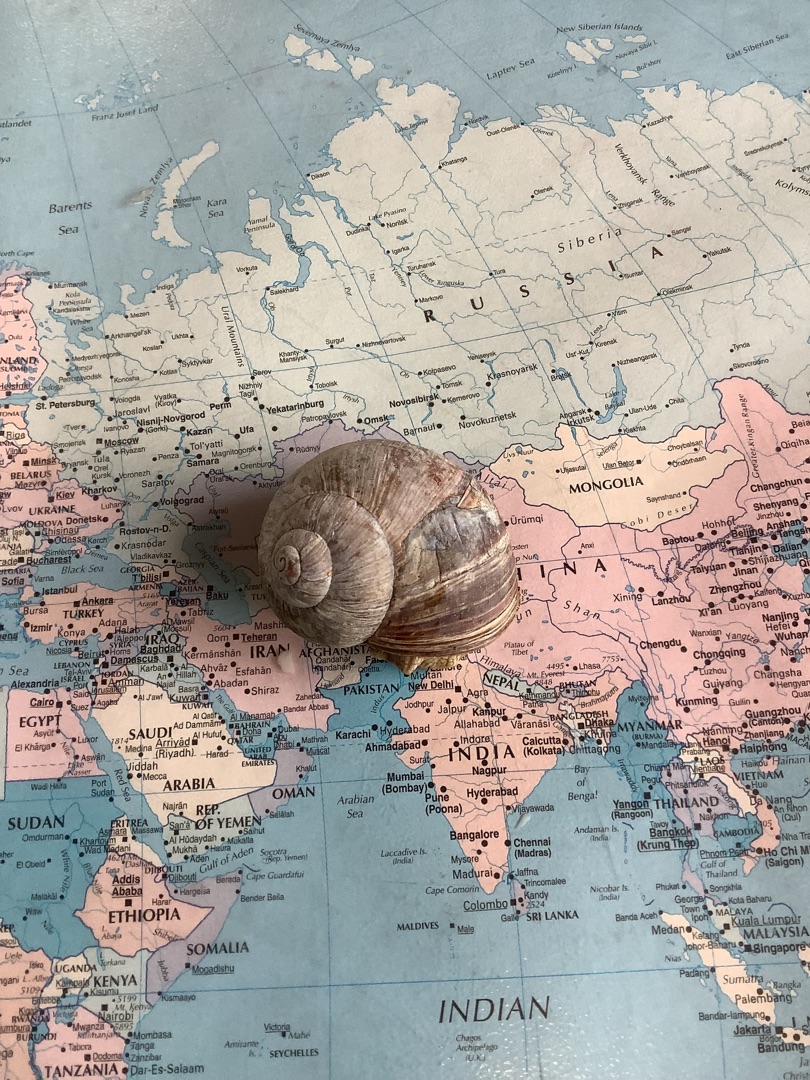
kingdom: Animalia
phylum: Mollusca
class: Gastropoda
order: Stylommatophora
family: Helicidae
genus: Helix
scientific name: Helix pomatia
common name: Vinbjergsnegl
